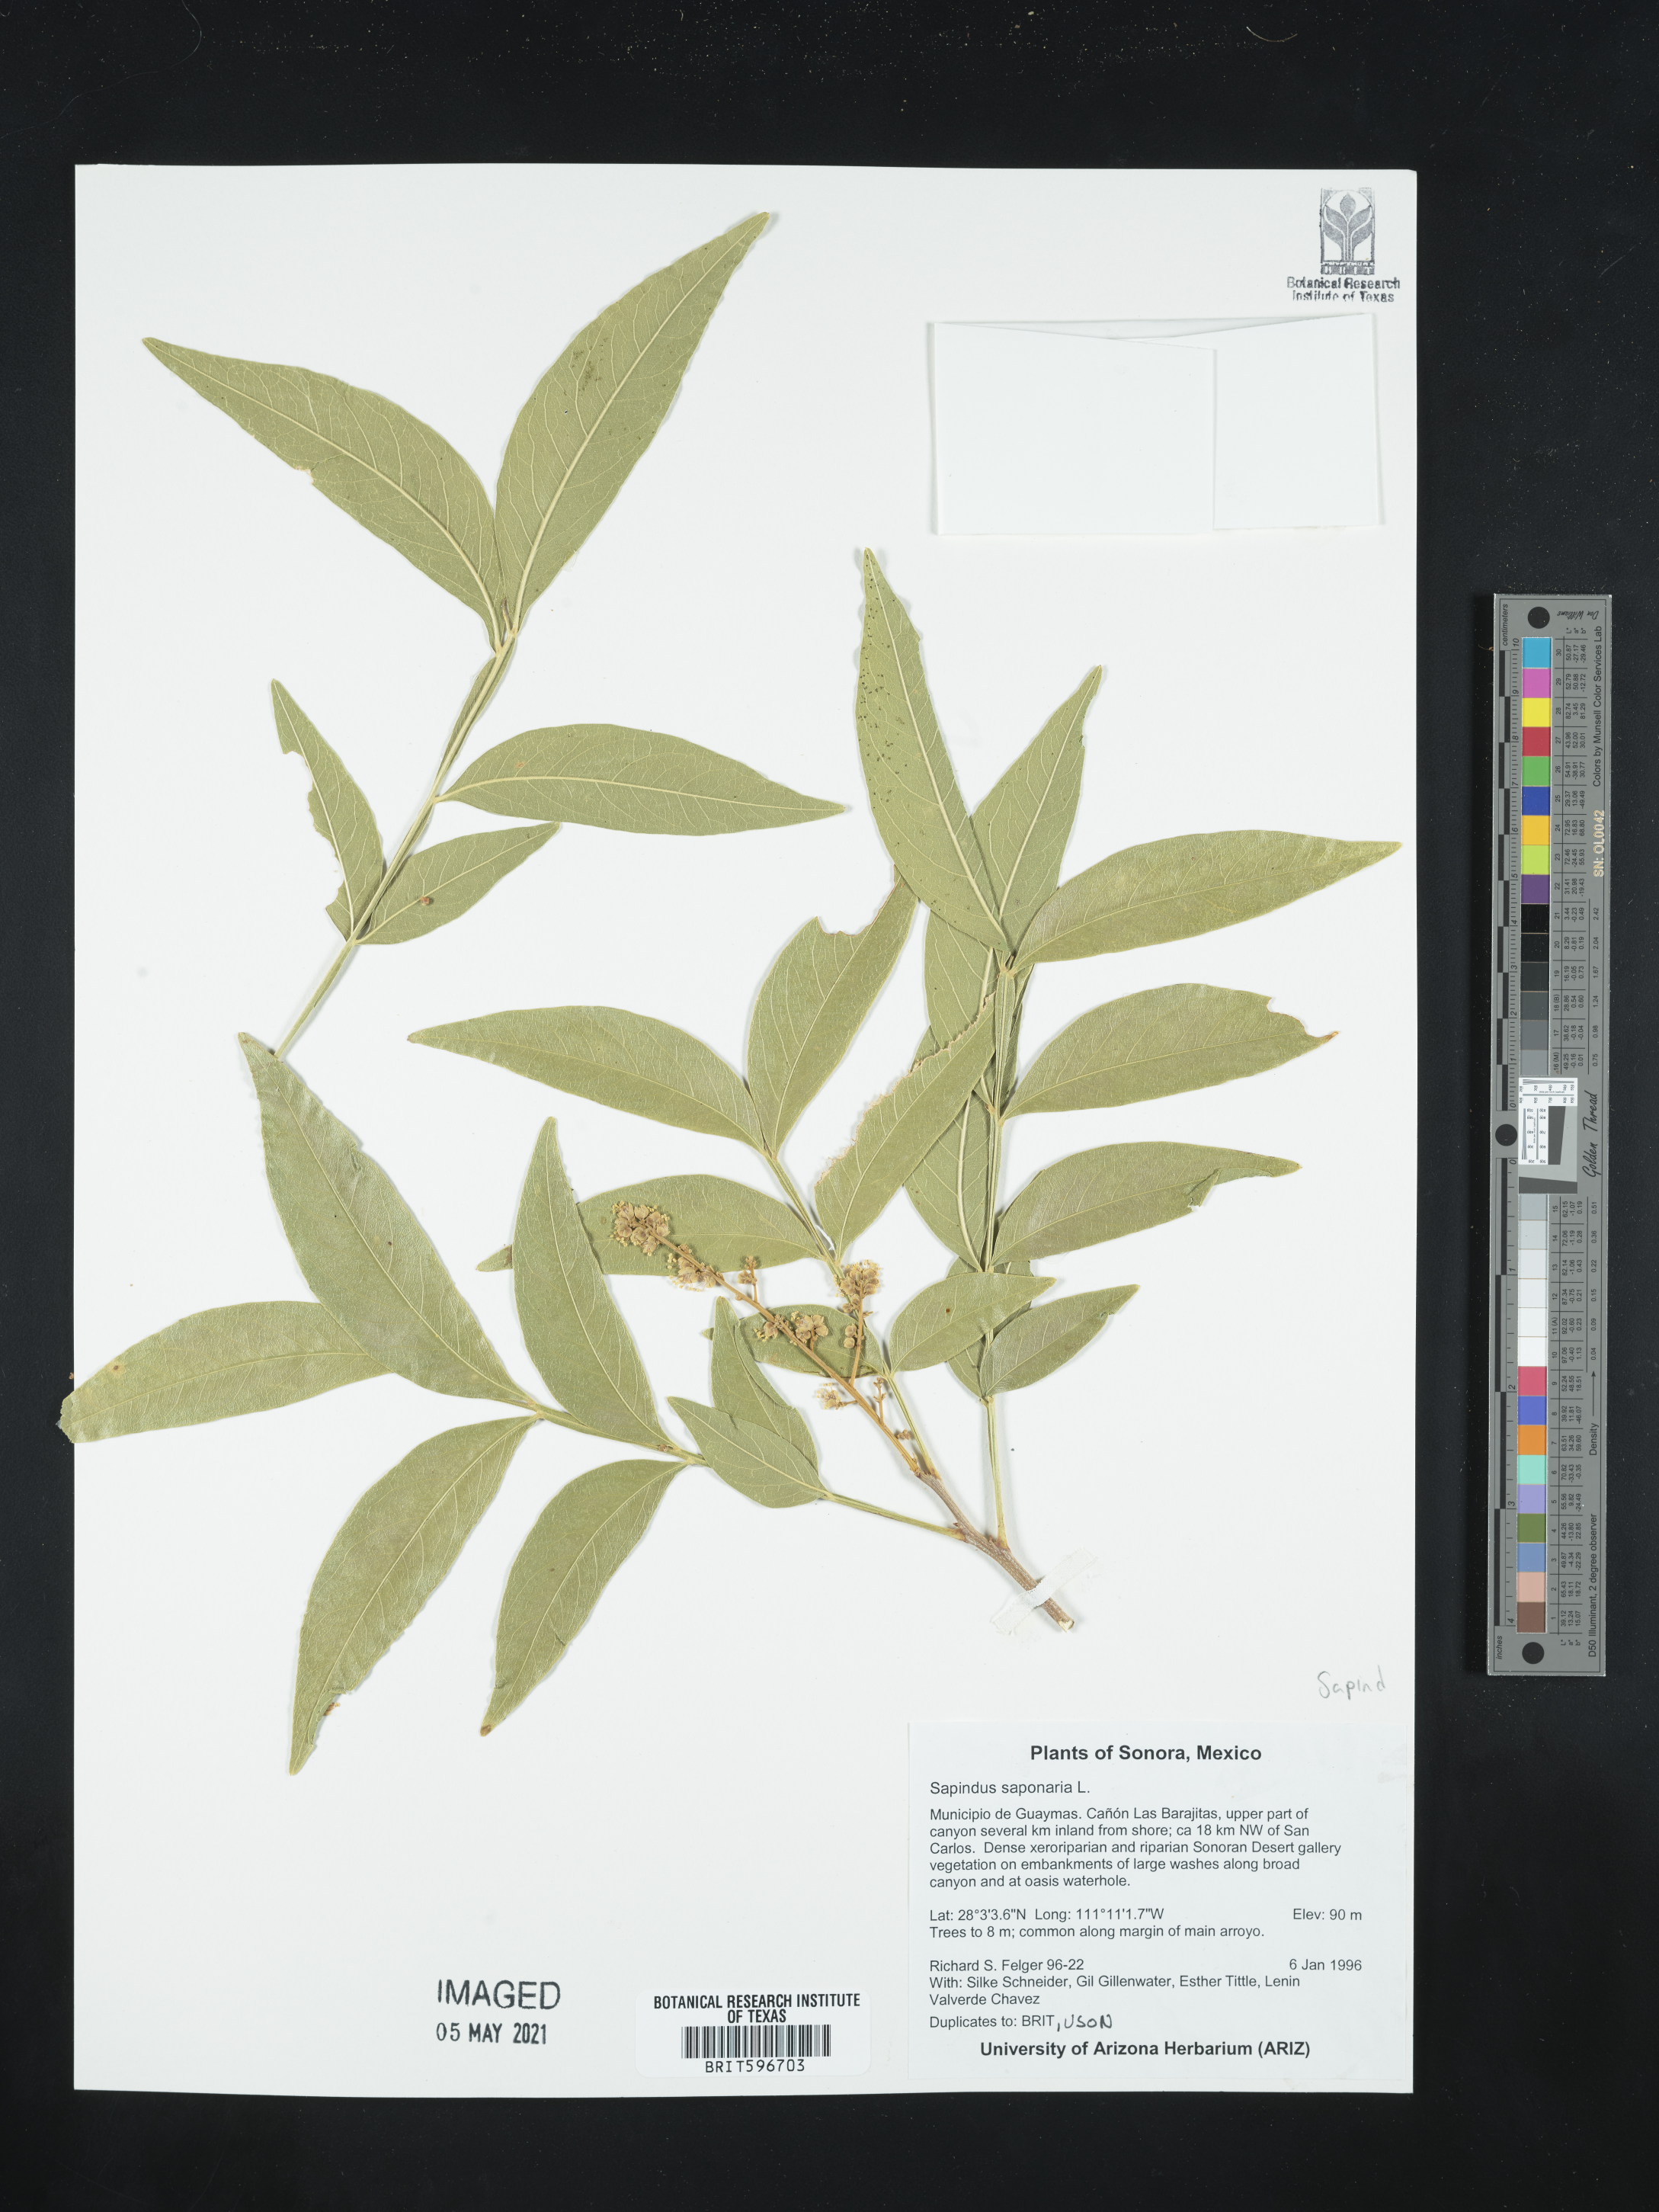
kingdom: Plantae
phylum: Tracheophyta
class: Magnoliopsida
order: Sapindales
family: Sapindaceae
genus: Sapindus
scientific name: Sapindus saponaria
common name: Wingleaf soapberry
